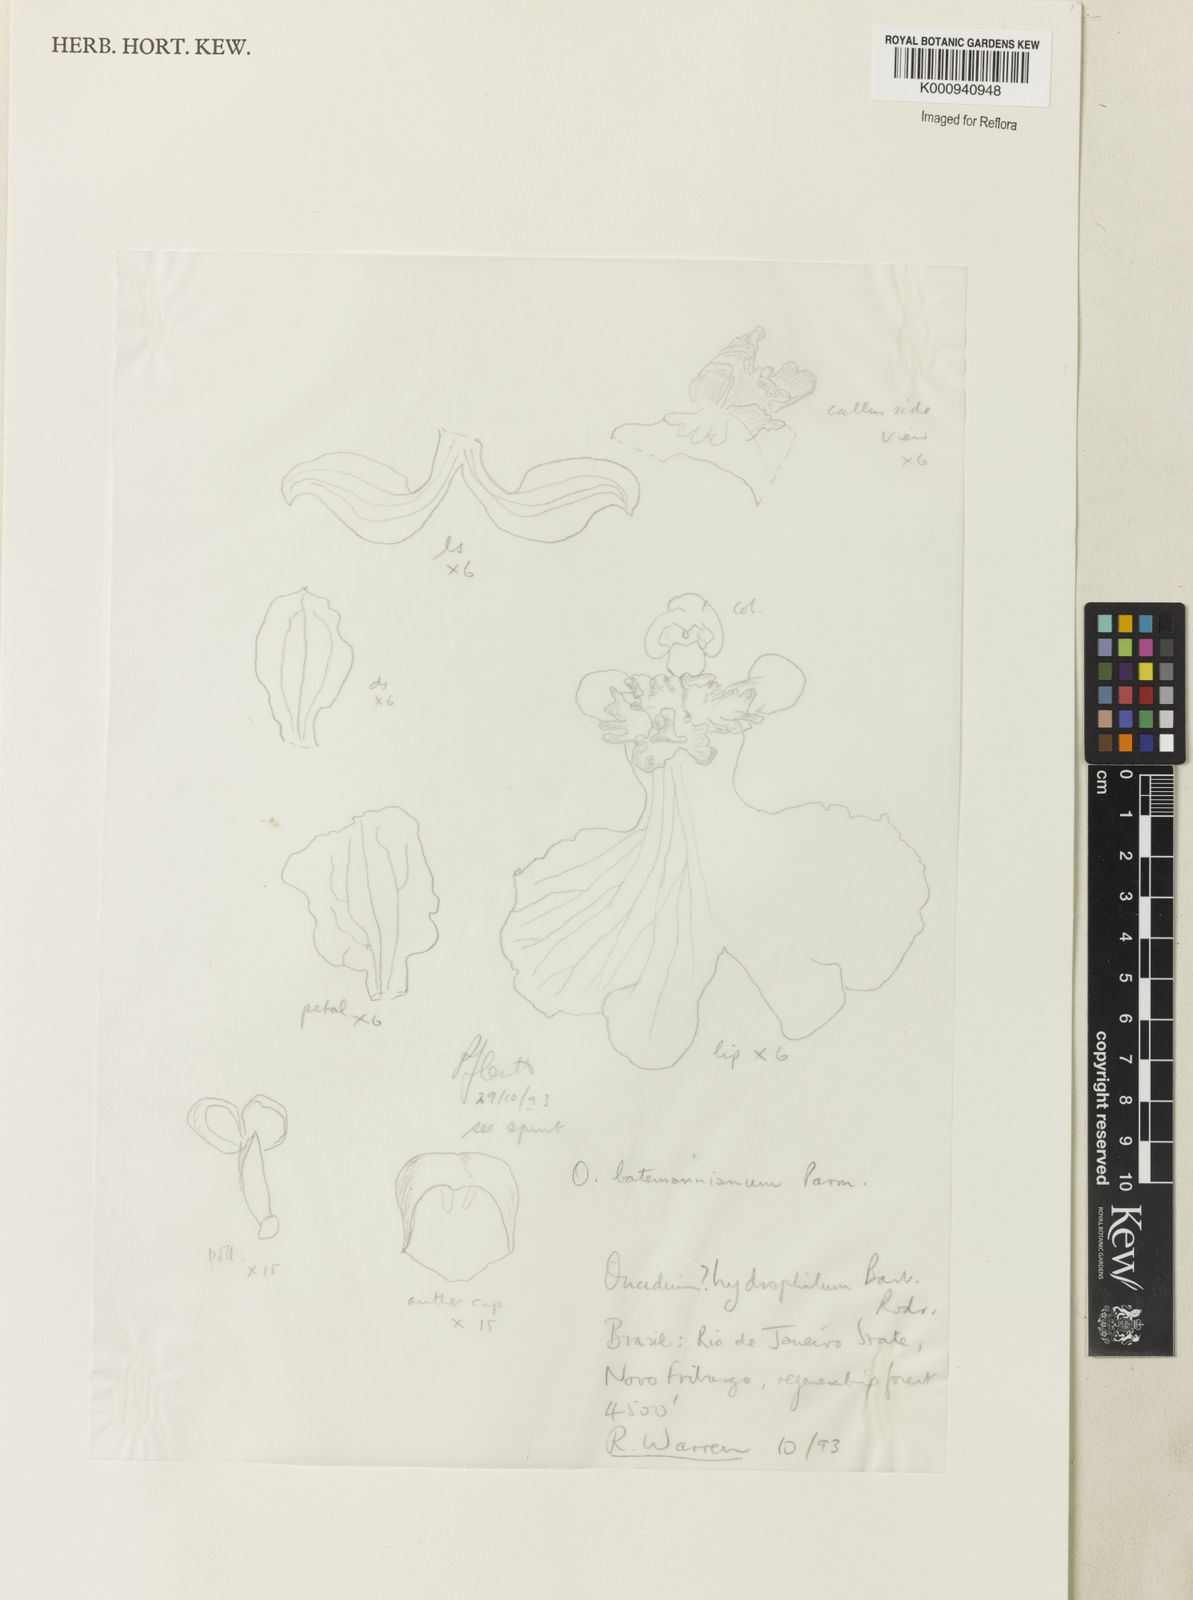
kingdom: Plantae
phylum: Tracheophyta
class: Liliopsida
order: Asparagales
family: Orchidaceae
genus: Gomesa
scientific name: Gomesa ramosa
